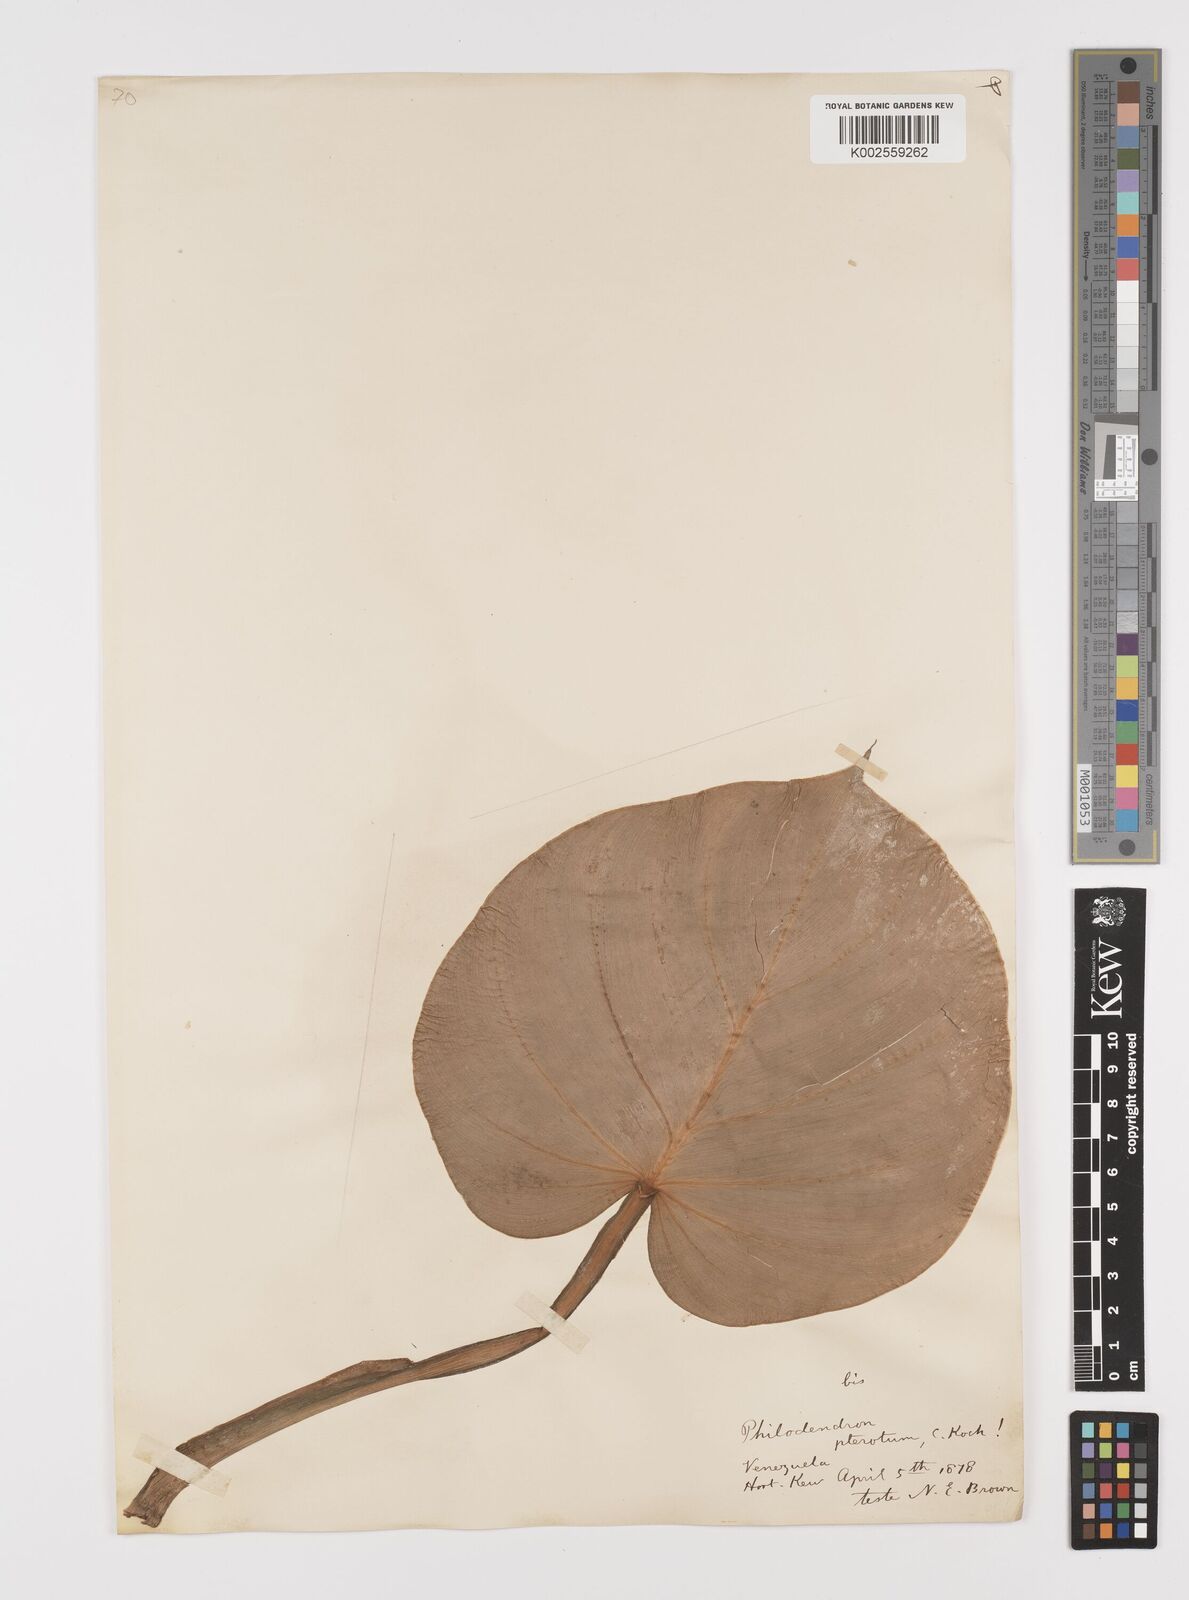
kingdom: Plantae
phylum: Tracheophyta
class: Liliopsida
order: Alismatales
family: Araceae
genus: Philodendron
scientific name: Philodendron pterotum
